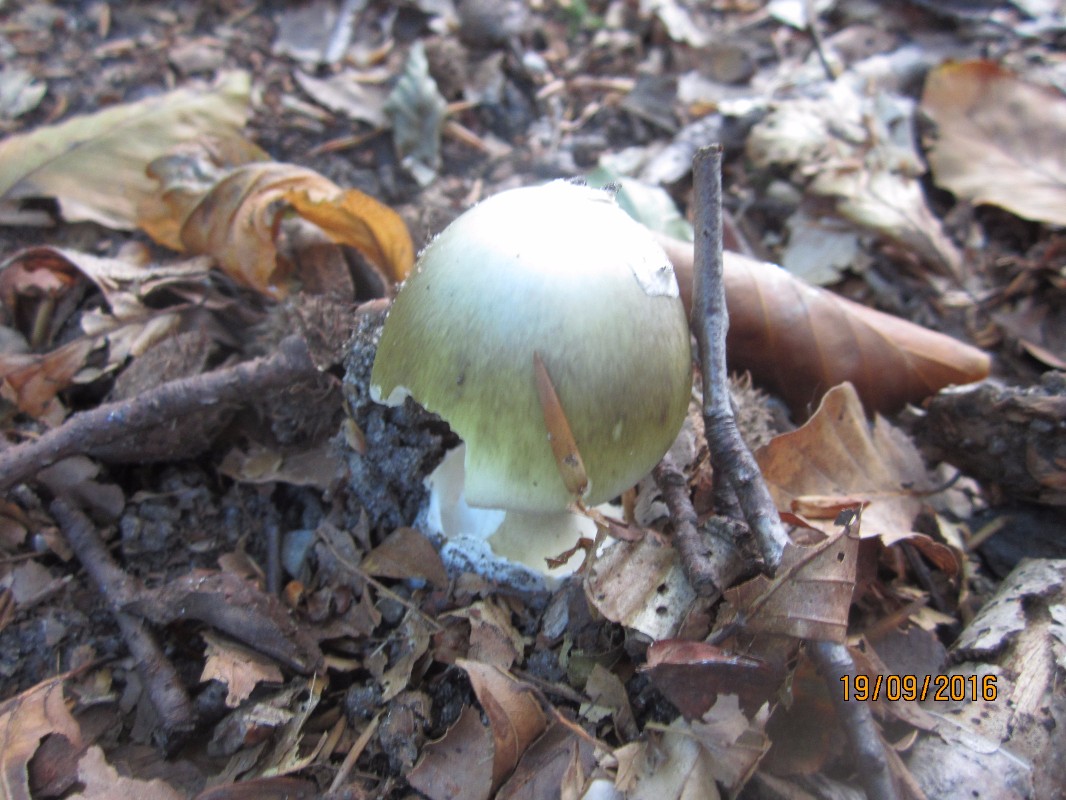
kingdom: Fungi
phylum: Basidiomycota
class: Agaricomycetes
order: Agaricales
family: Amanitaceae
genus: Amanita
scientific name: Amanita phalloides
